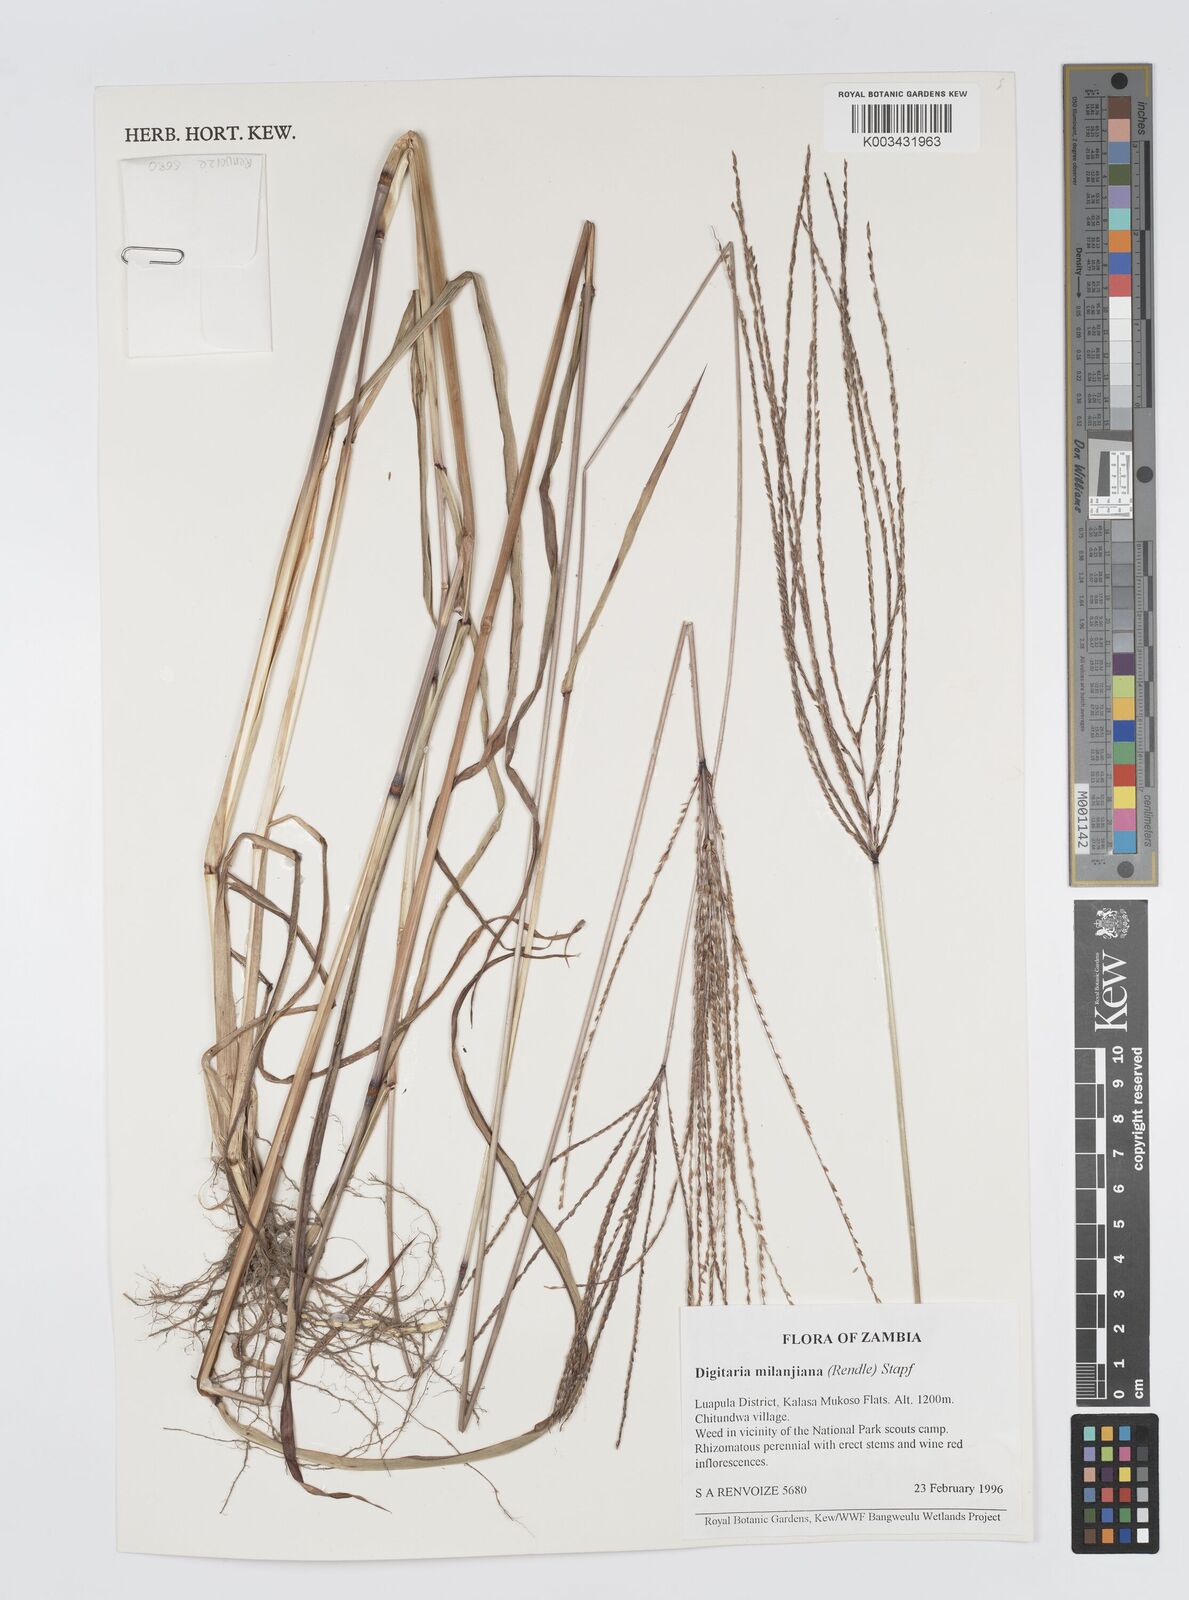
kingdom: Plantae
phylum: Tracheophyta
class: Liliopsida
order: Poales
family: Poaceae
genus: Digitaria
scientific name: Digitaria milanjiana
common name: Madagascar crabgrass
